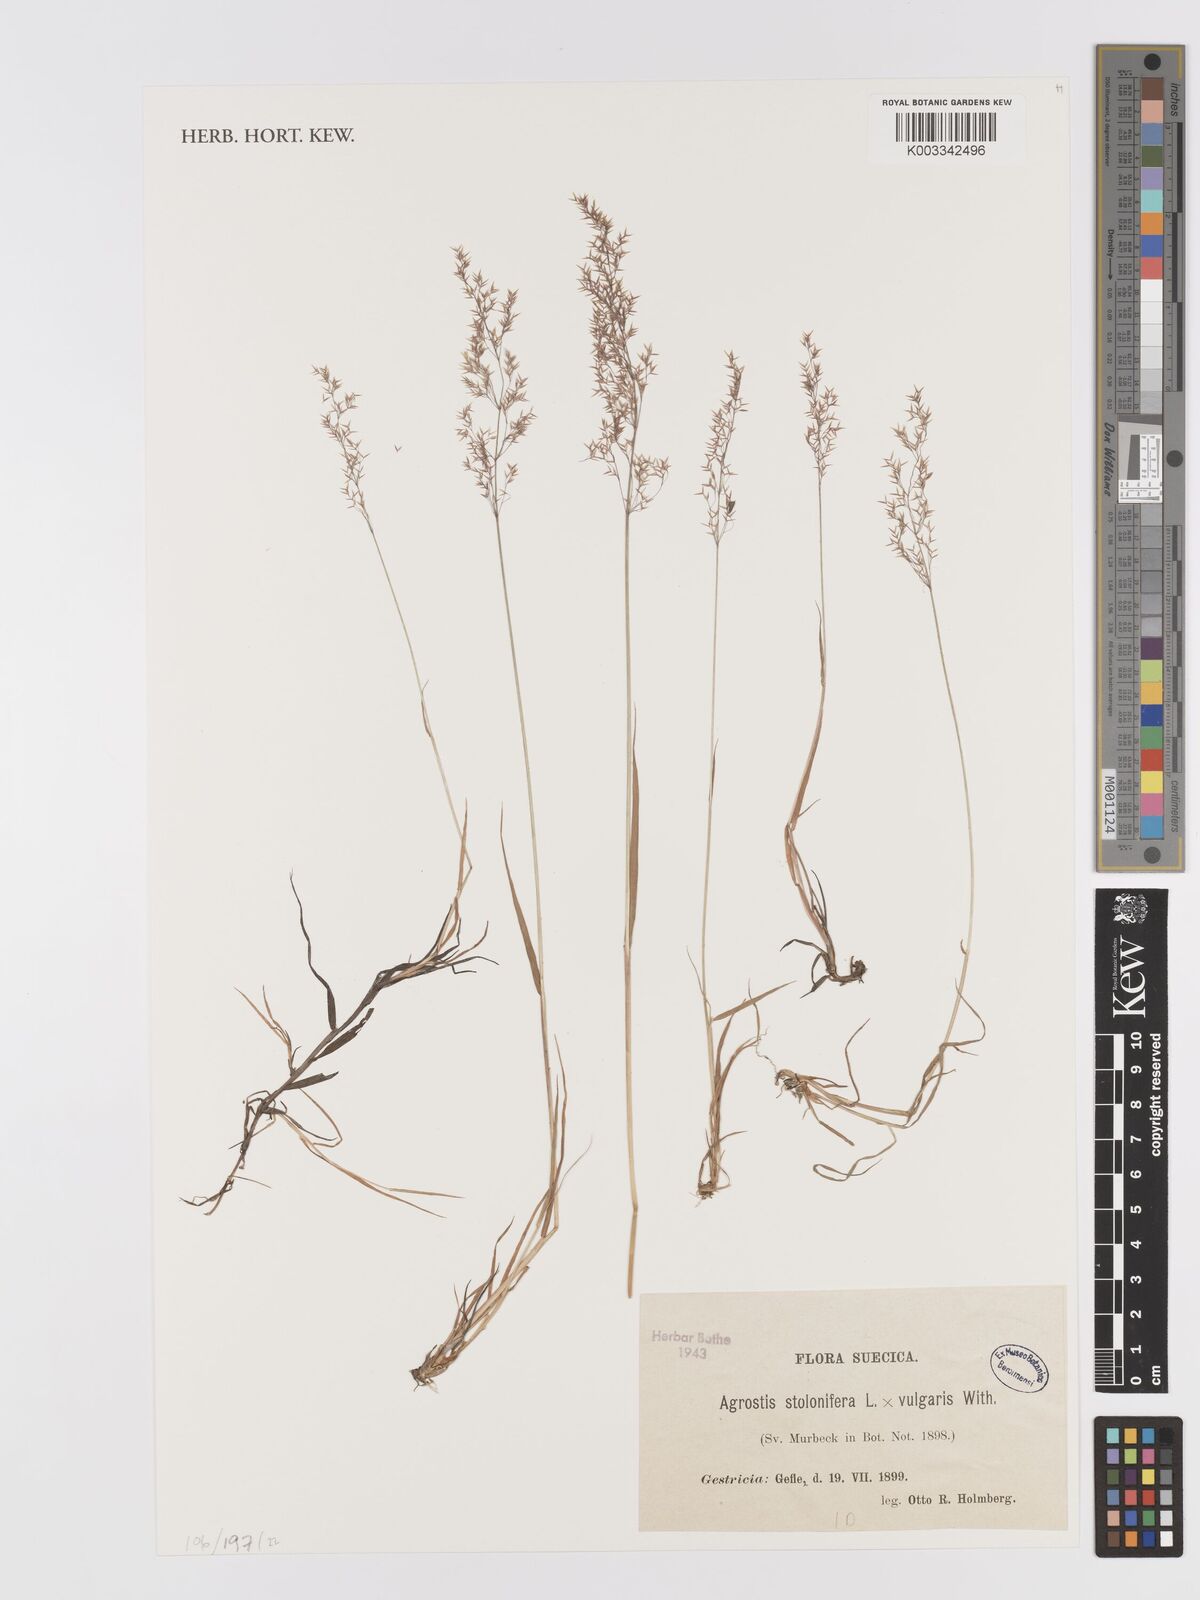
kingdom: Plantae
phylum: Tracheophyta
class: Liliopsida
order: Poales
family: Poaceae
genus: Agrostis
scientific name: Agrostis gigantea
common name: Black bent
